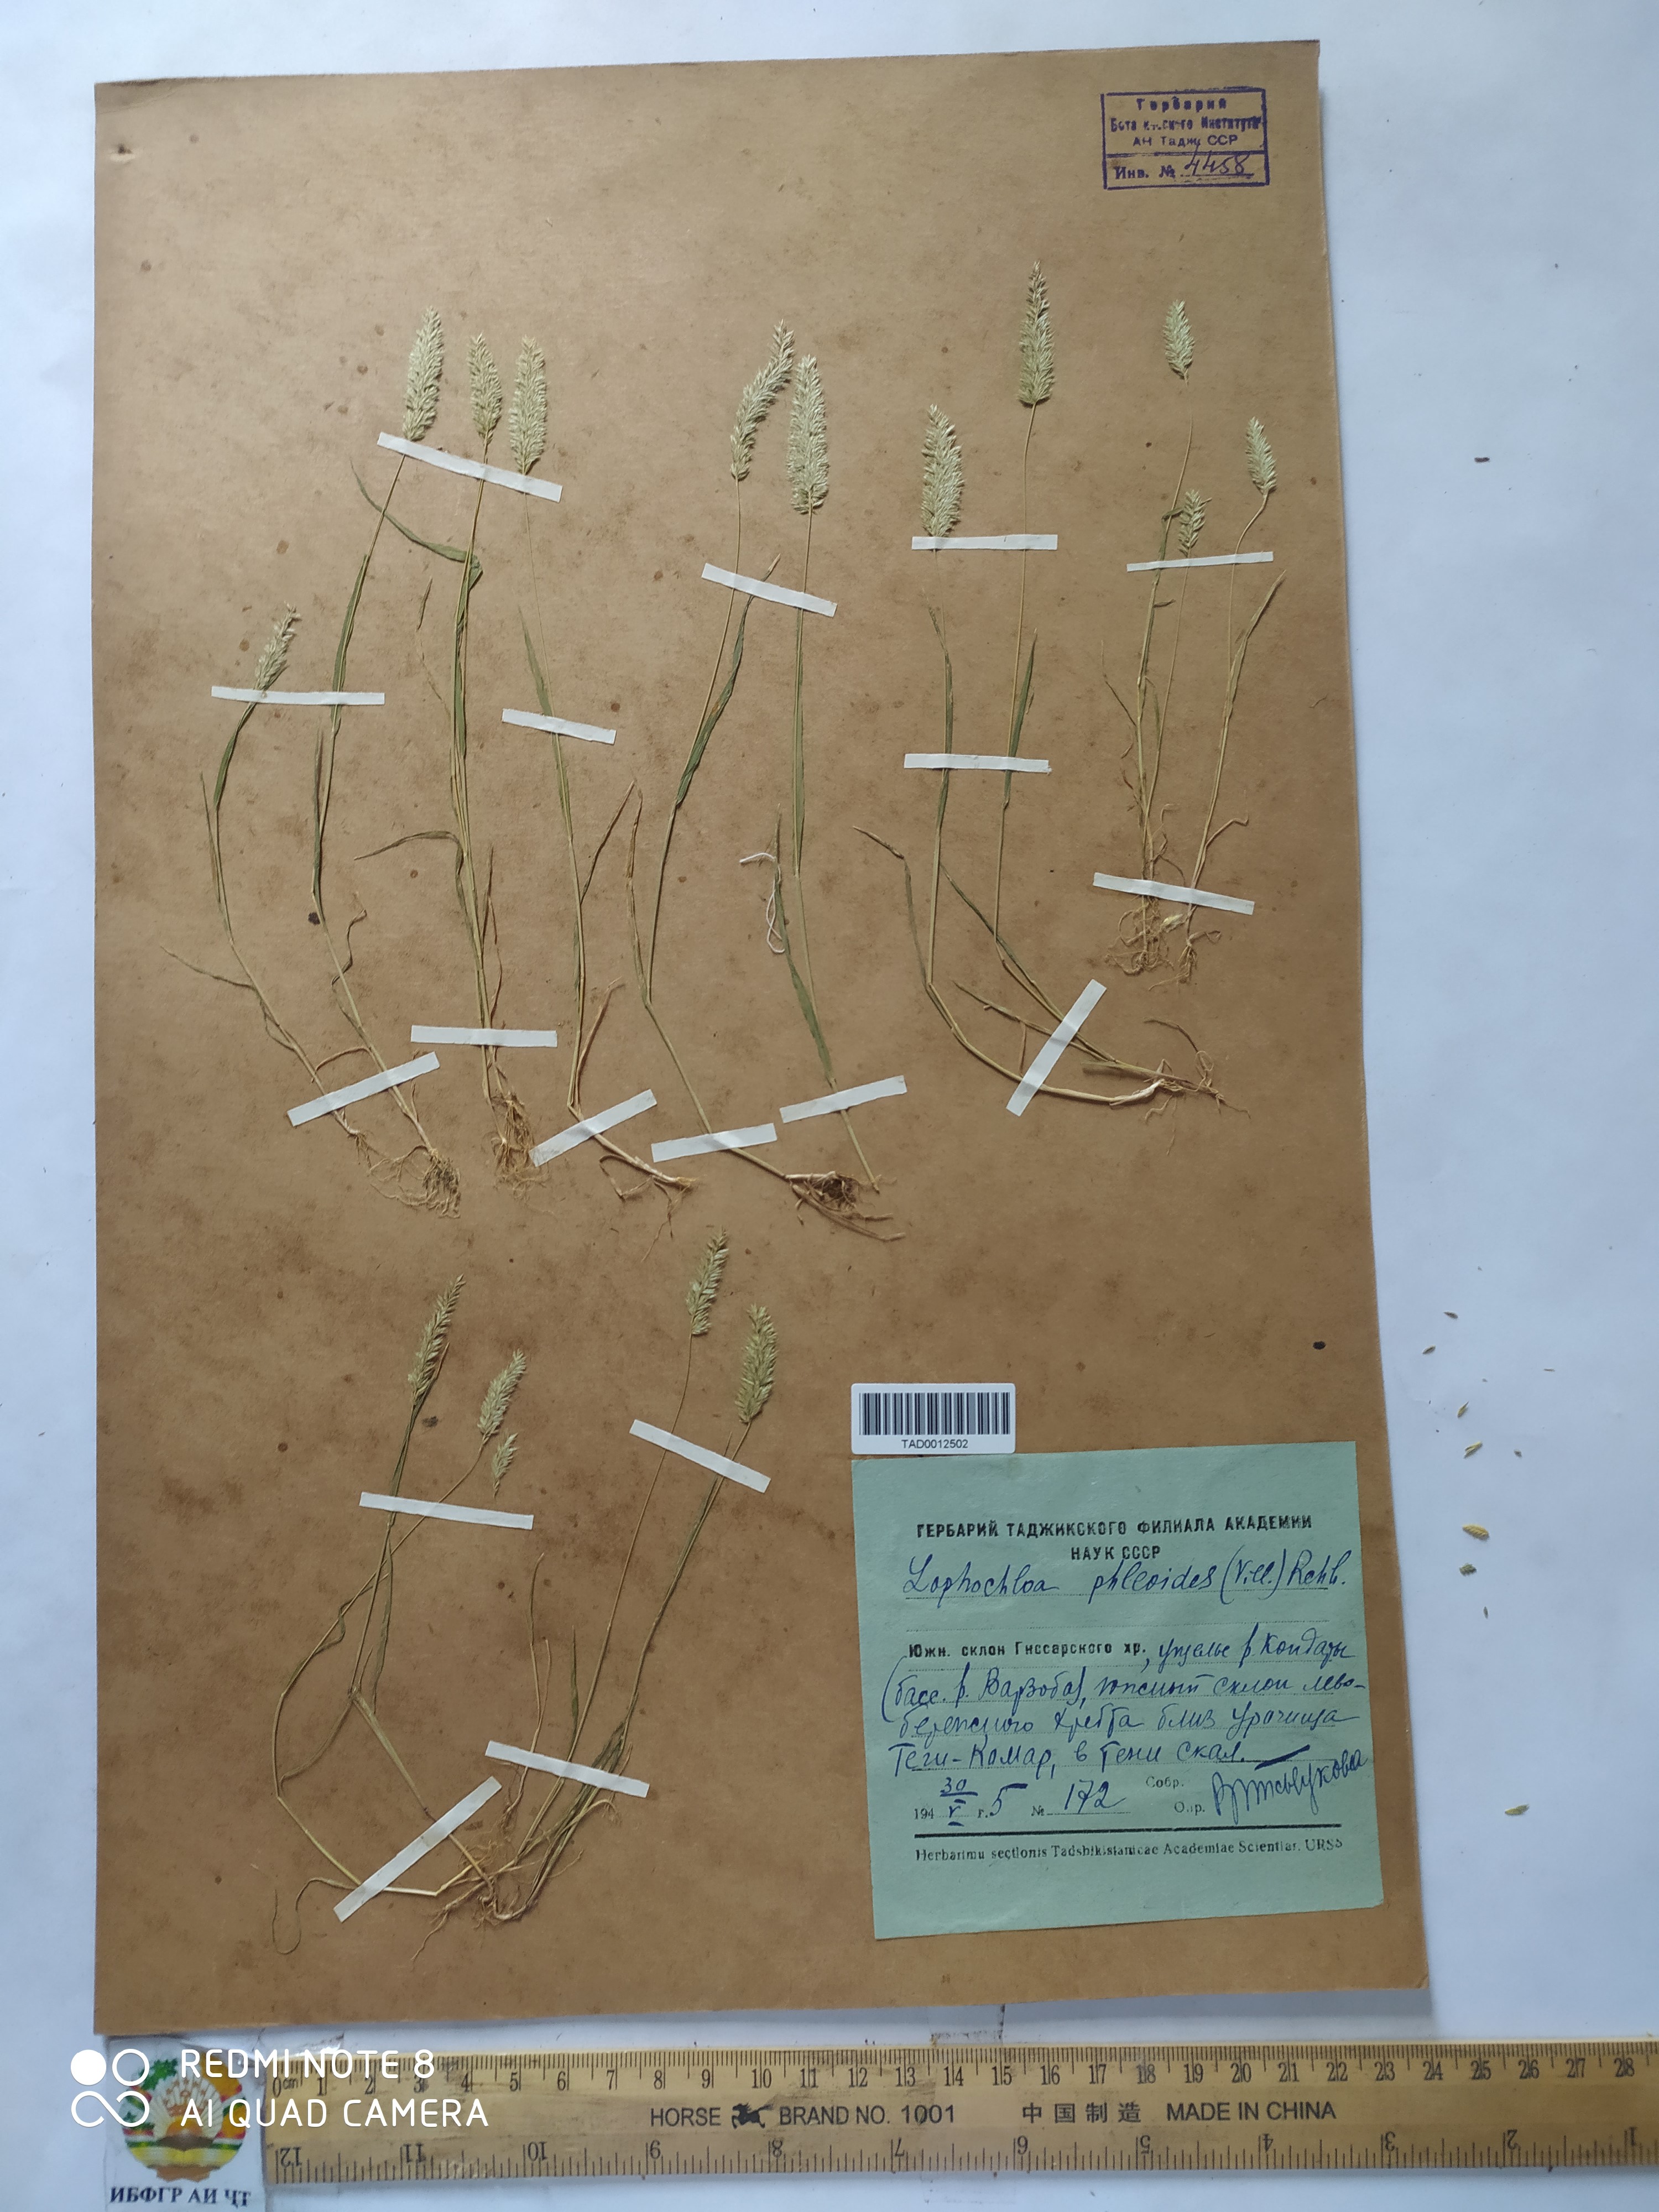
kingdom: Plantae
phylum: Tracheophyta
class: Liliopsida
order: Poales
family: Poaceae
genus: Rostraria
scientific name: Rostraria cristata
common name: Mediterranean hair-grass
